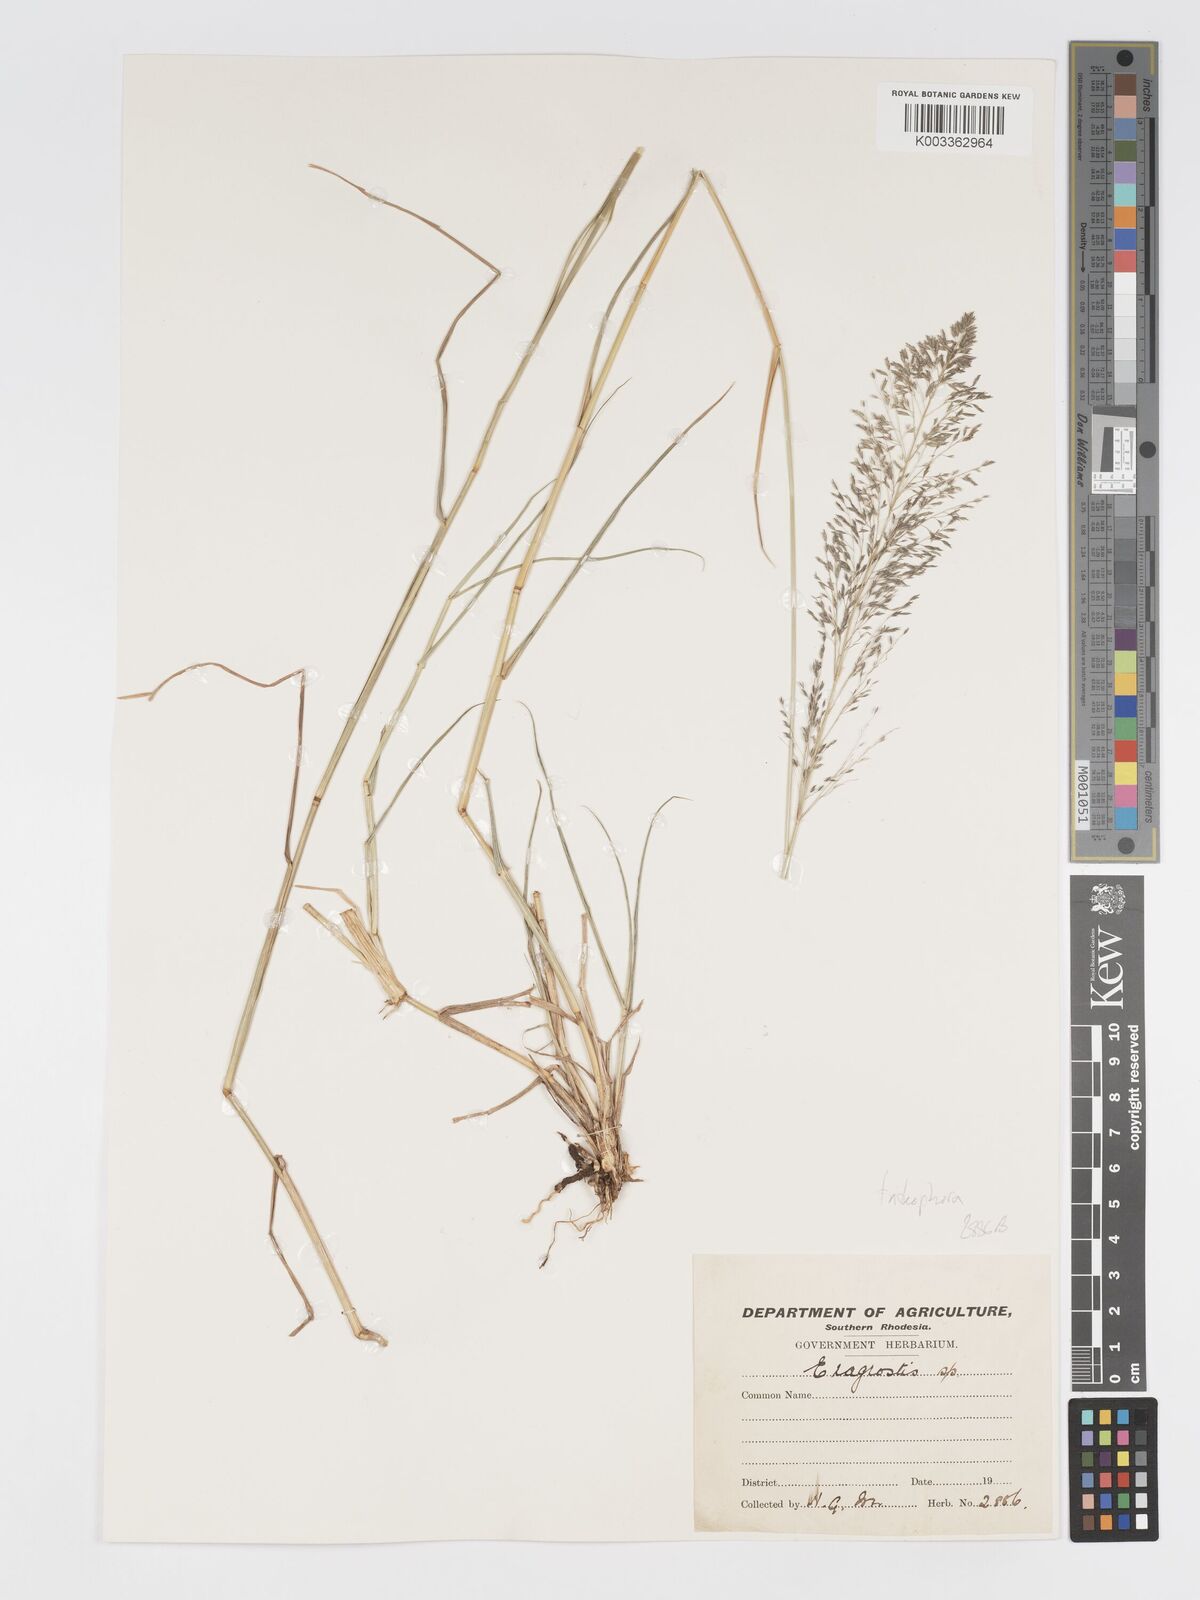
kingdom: Plantae
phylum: Tracheophyta
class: Liliopsida
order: Poales
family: Poaceae
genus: Eragrostis
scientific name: Eragrostis cylindriflora
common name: Cylinderflower lovegrass
